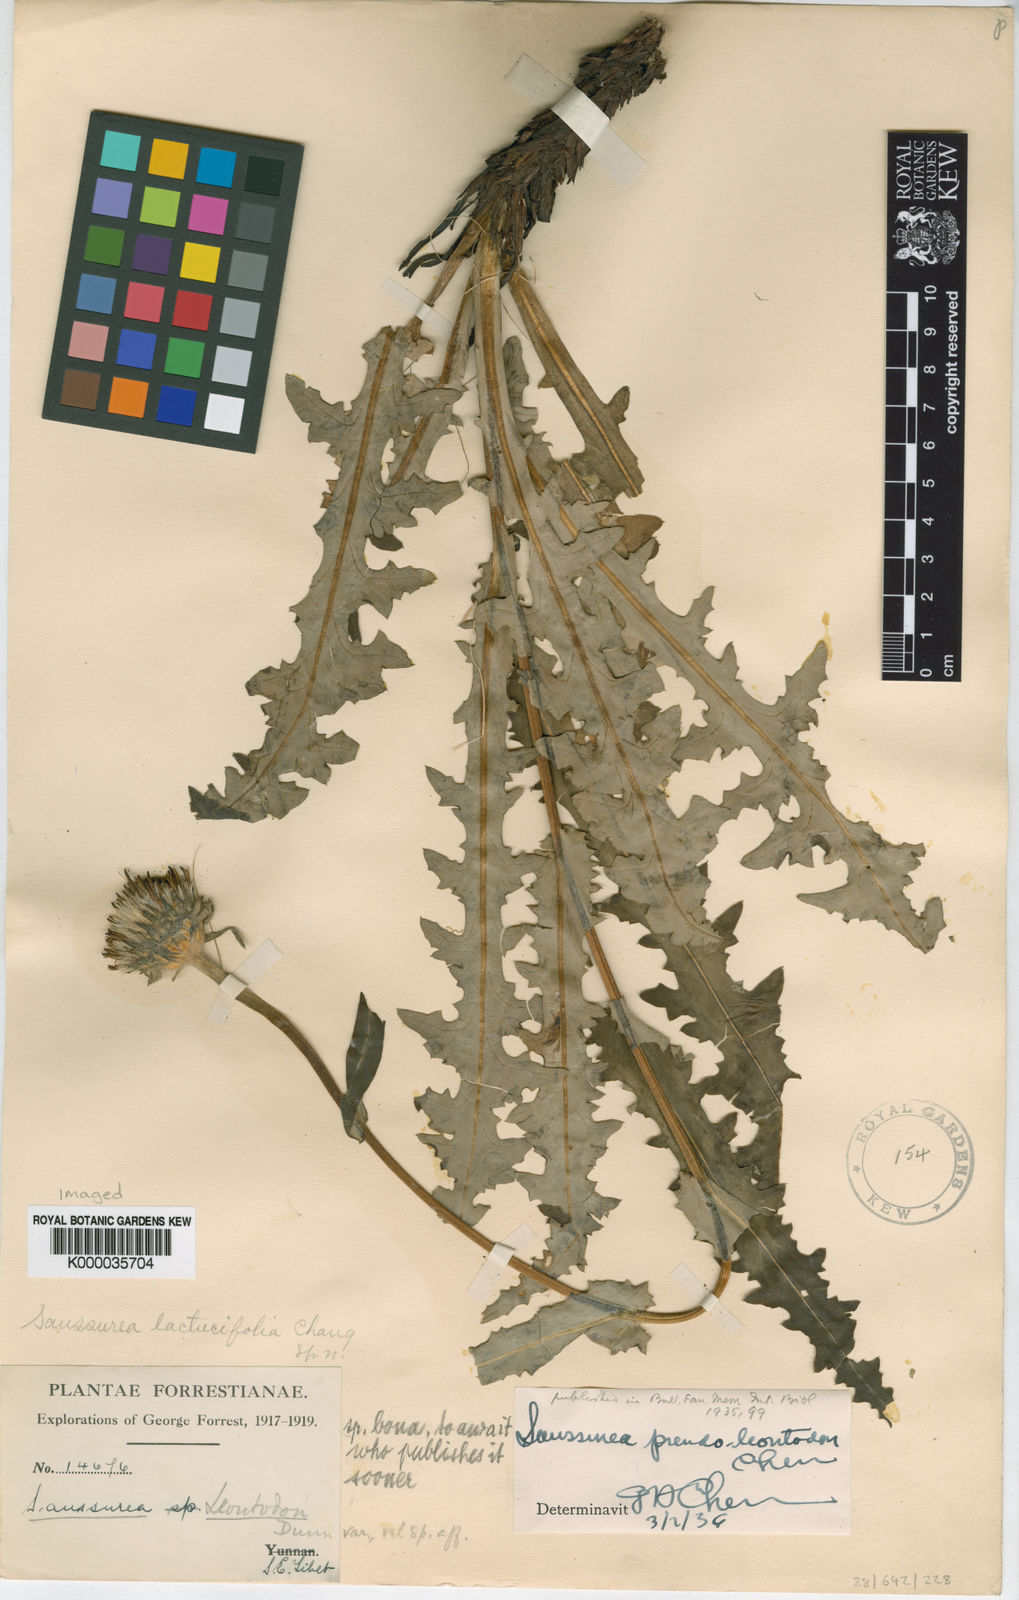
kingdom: Plantae
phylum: Tracheophyta
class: Magnoliopsida
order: Asterales
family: Asteraceae
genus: Saussurea
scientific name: Saussurea scabrida
